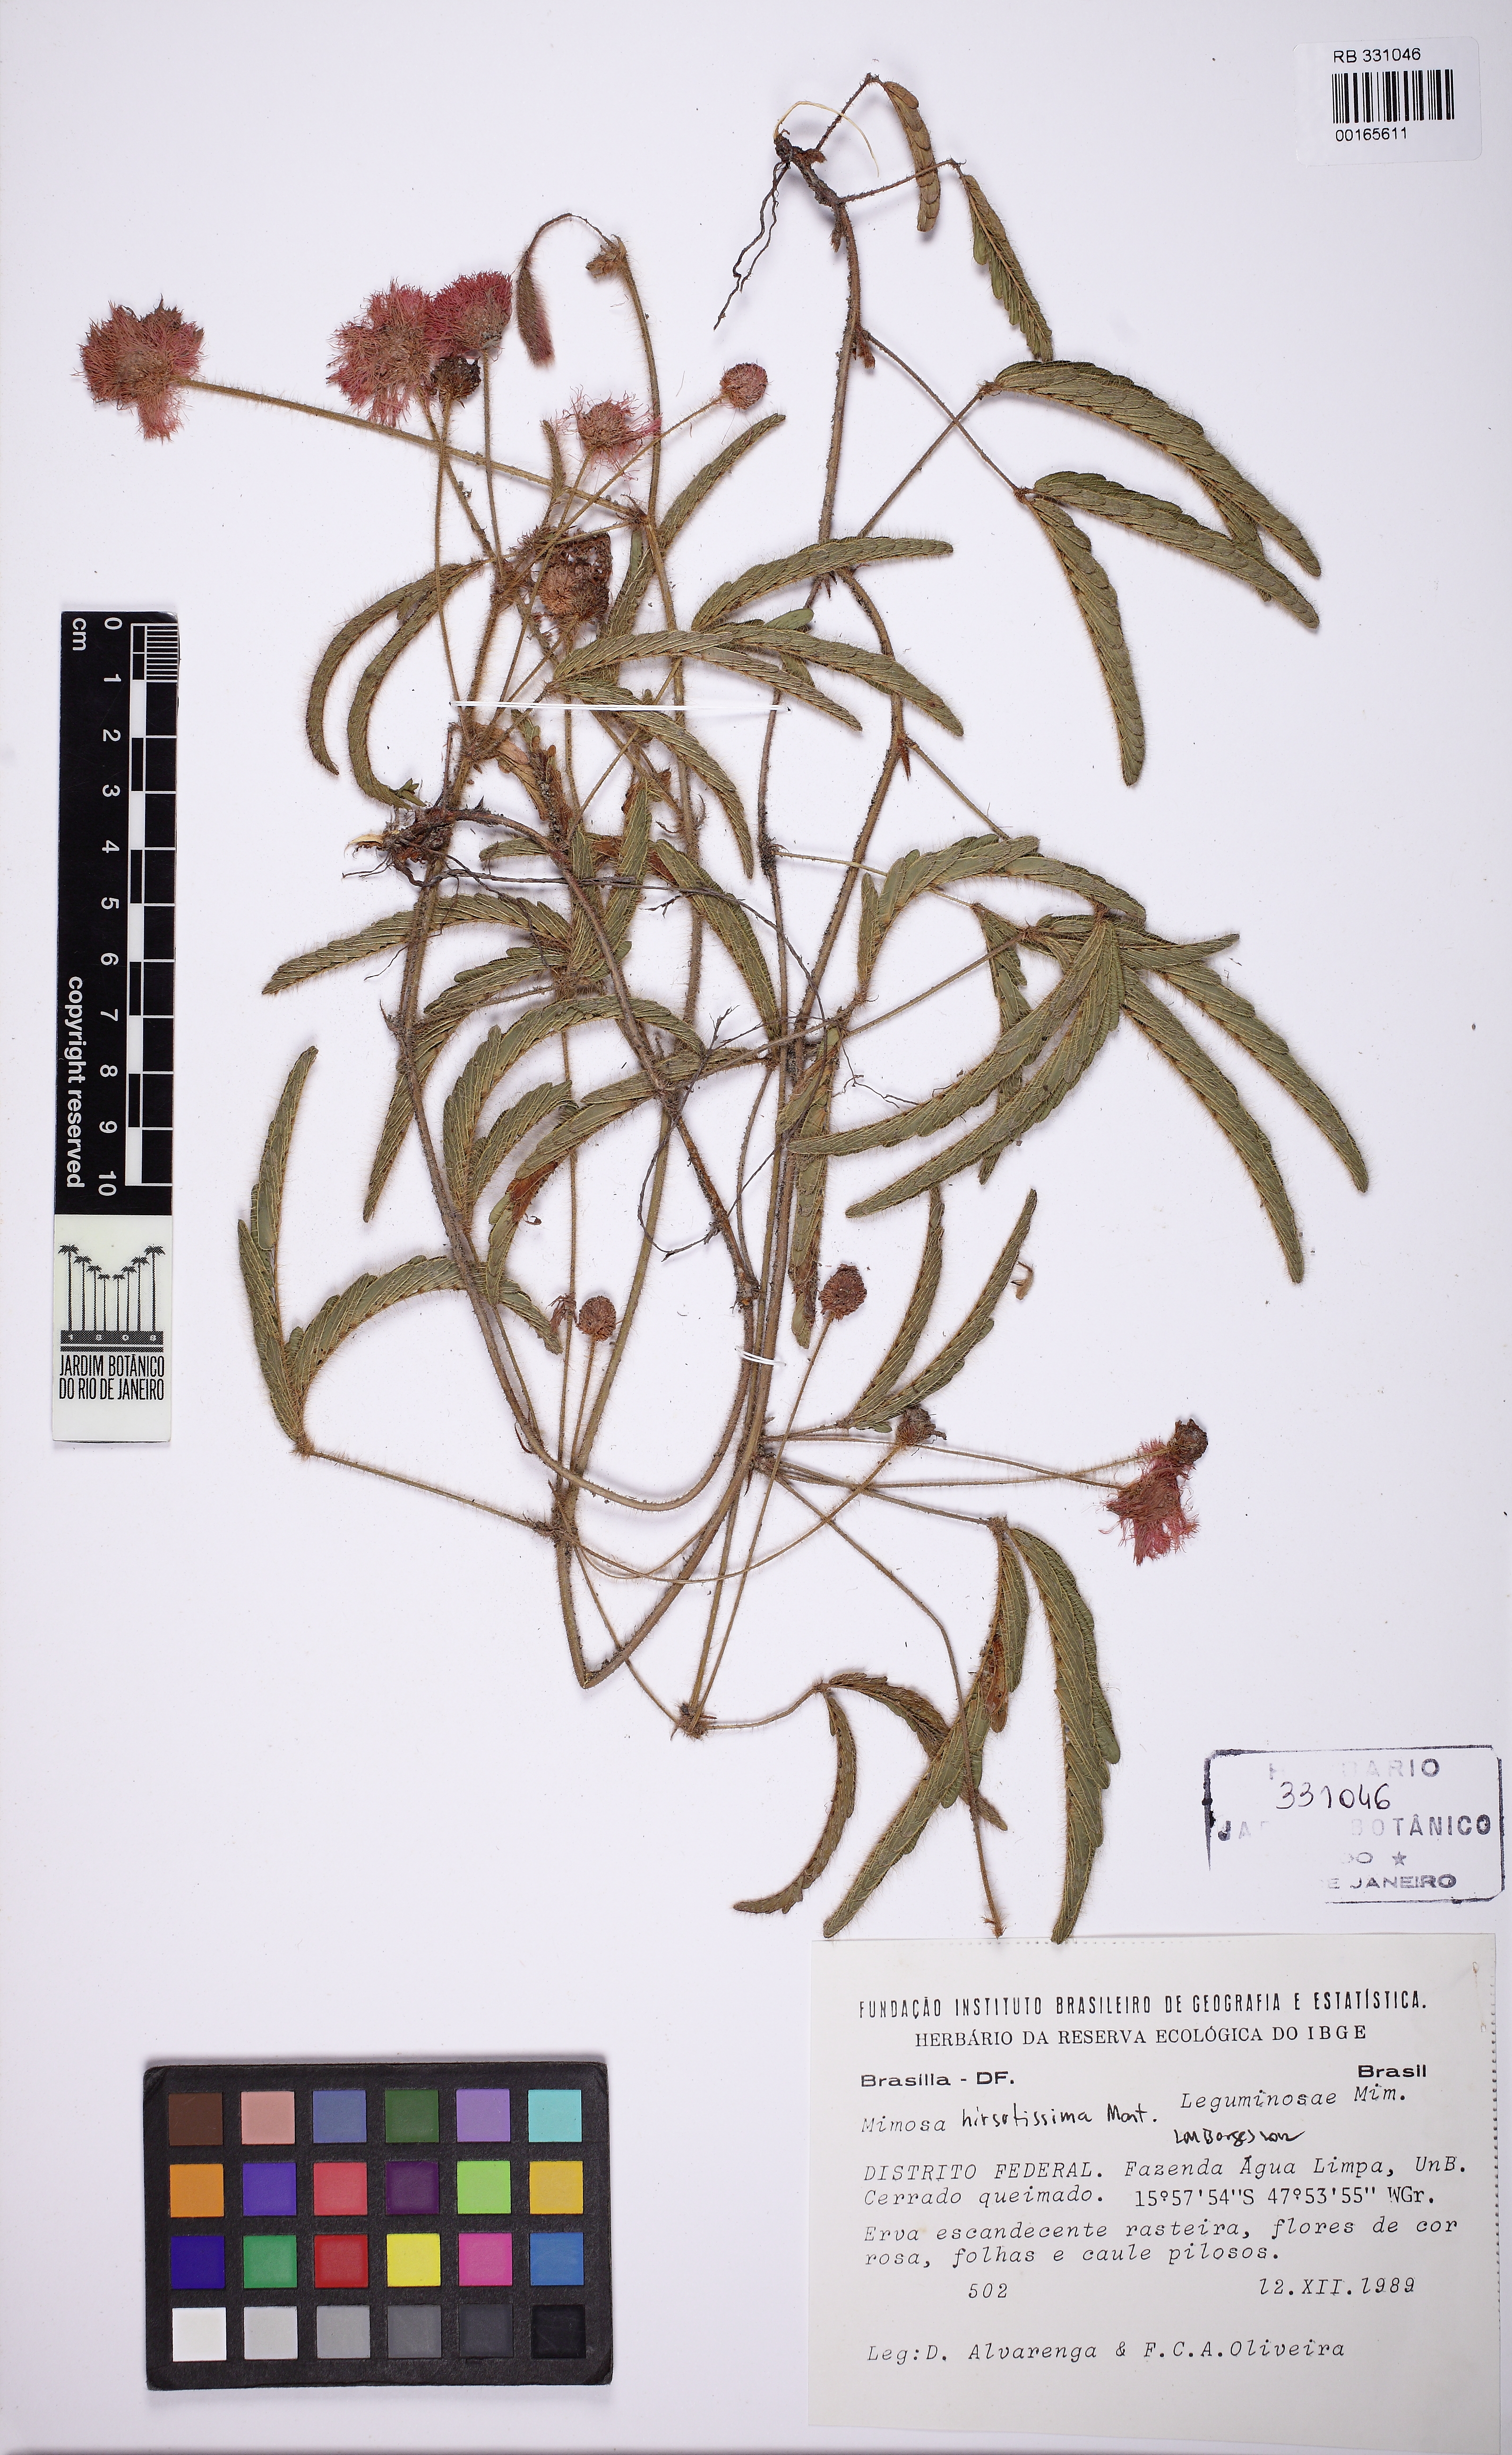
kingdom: Plantae
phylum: Tracheophyta
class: Magnoliopsida
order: Fabales
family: Fabaceae
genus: Mimosa
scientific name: Mimosa hirsutissima
